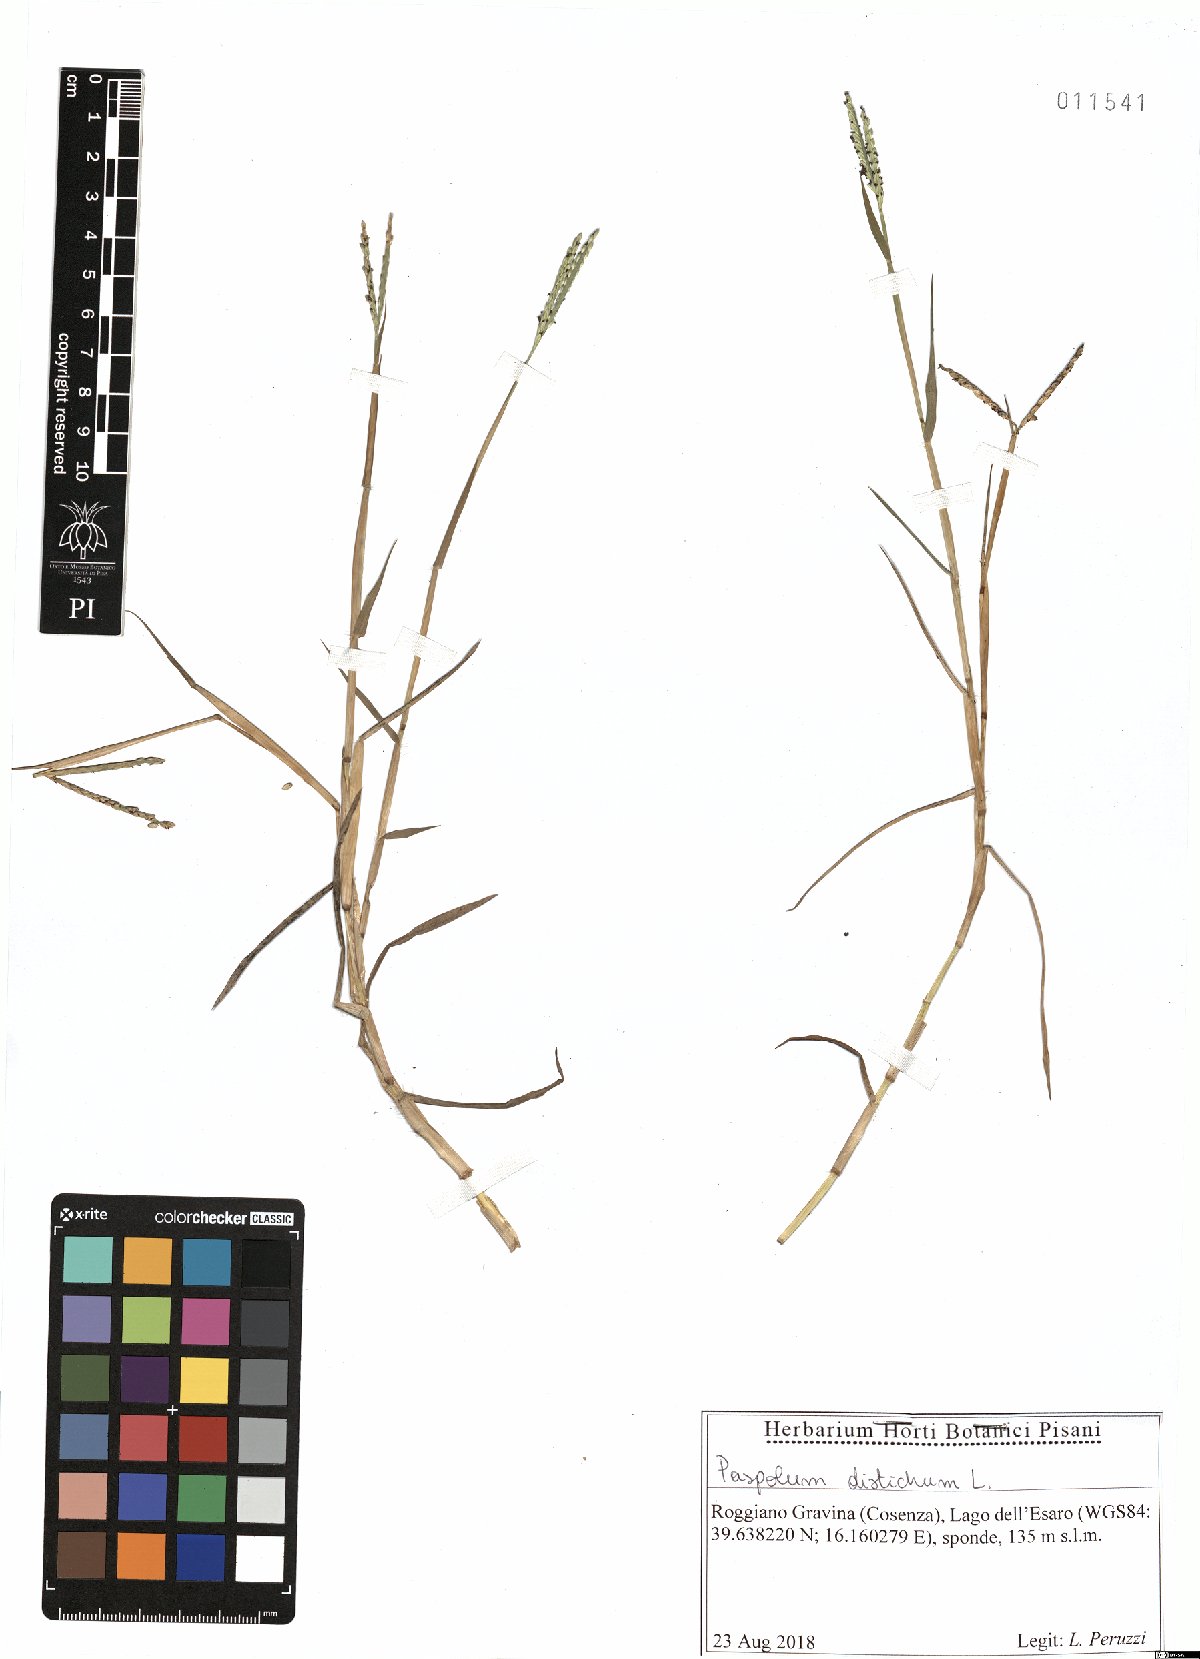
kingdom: Plantae
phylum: Tracheophyta
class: Liliopsida
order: Poales
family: Poaceae
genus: Paspalum
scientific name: Paspalum distichum
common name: Knotgrass
